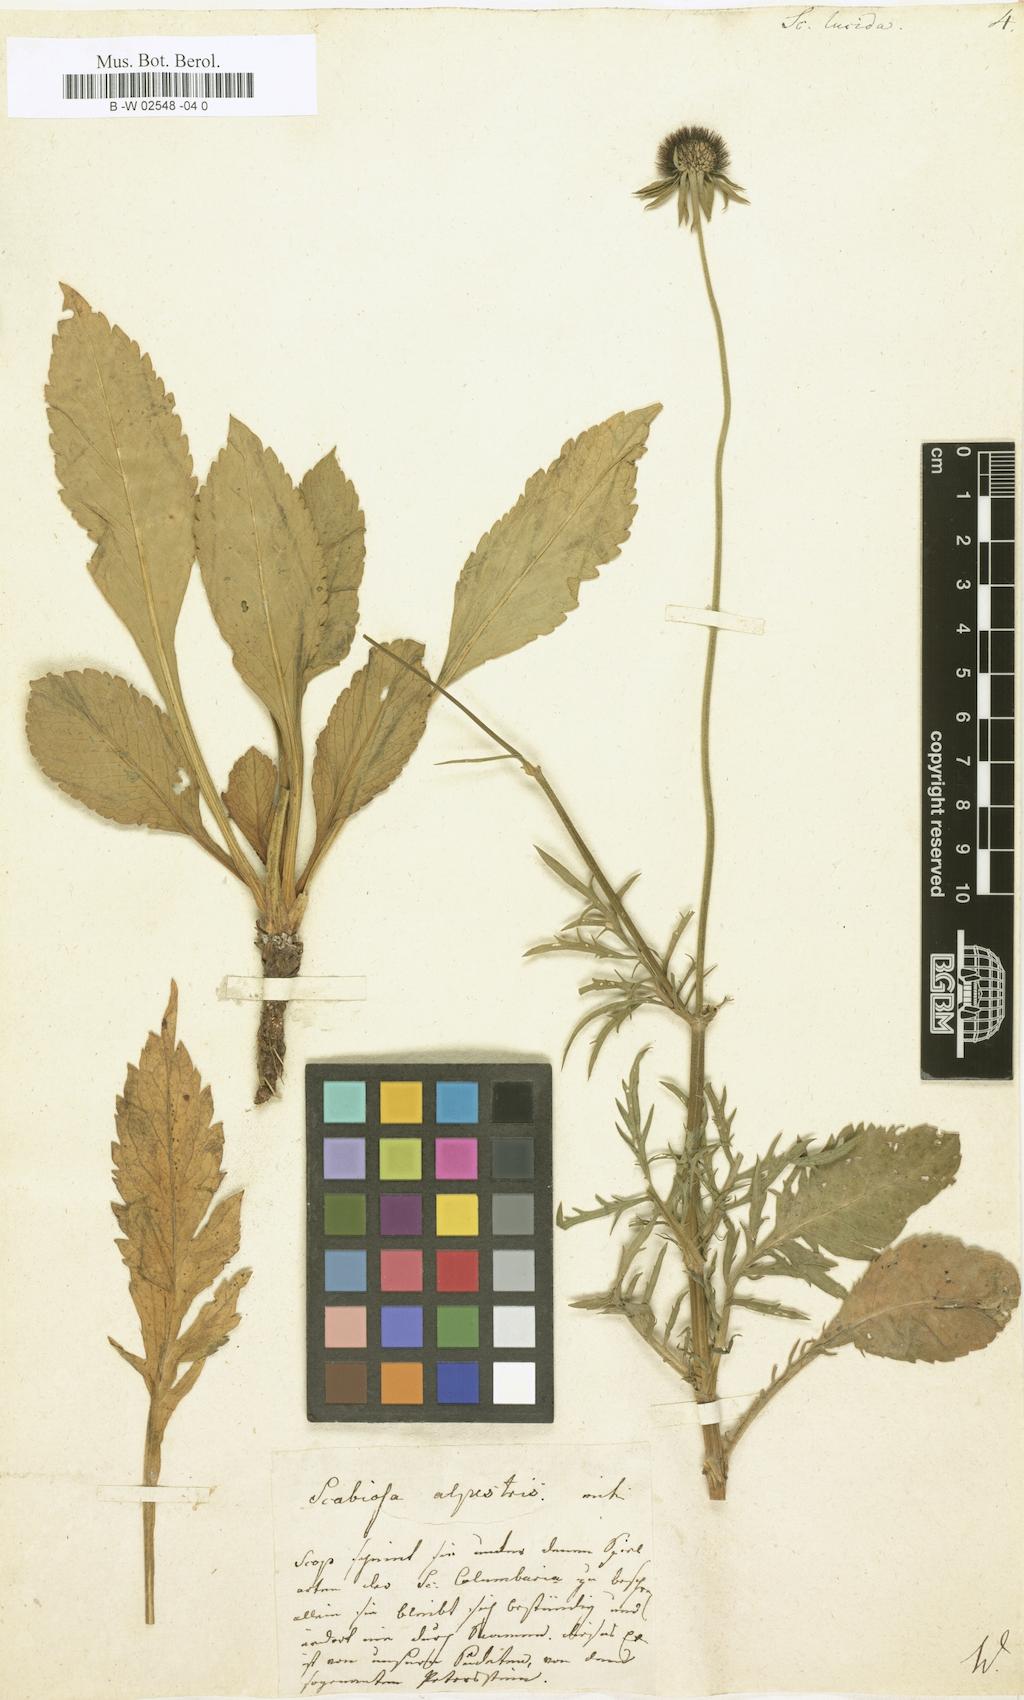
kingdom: Plantae
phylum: Tracheophyta
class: Magnoliopsida
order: Dipsacales
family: Caprifoliaceae
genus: Scabiosa
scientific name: Scabiosa lucida
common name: Shining scabious
